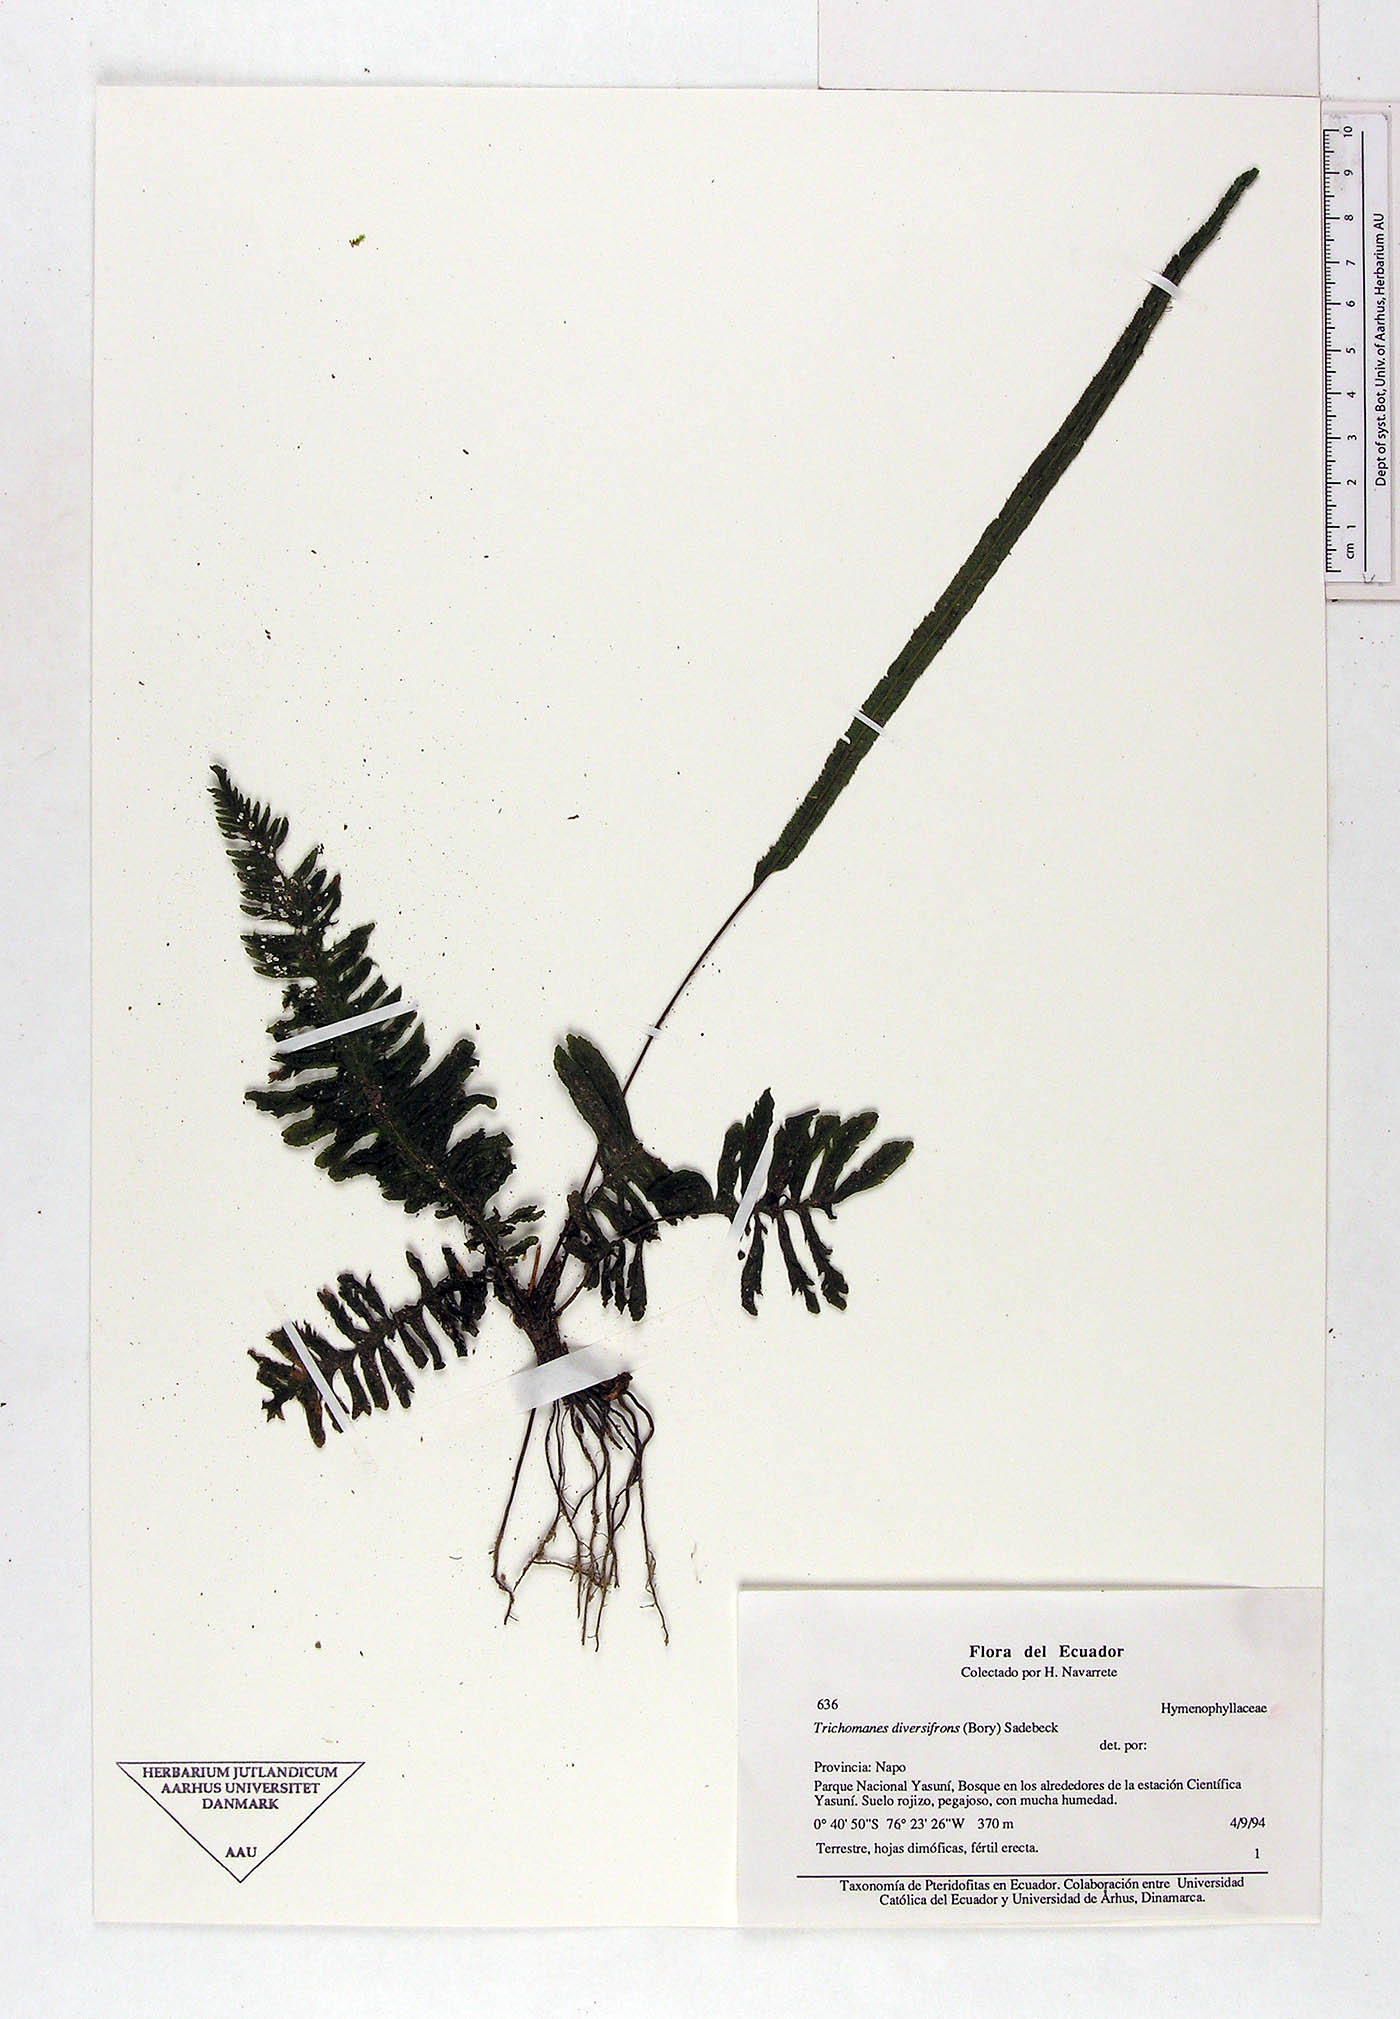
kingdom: Plantae
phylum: Tracheophyta
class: Polypodiopsida
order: Hymenophyllales
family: Hymenophyllaceae
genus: Trichomanes
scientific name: Trichomanes
